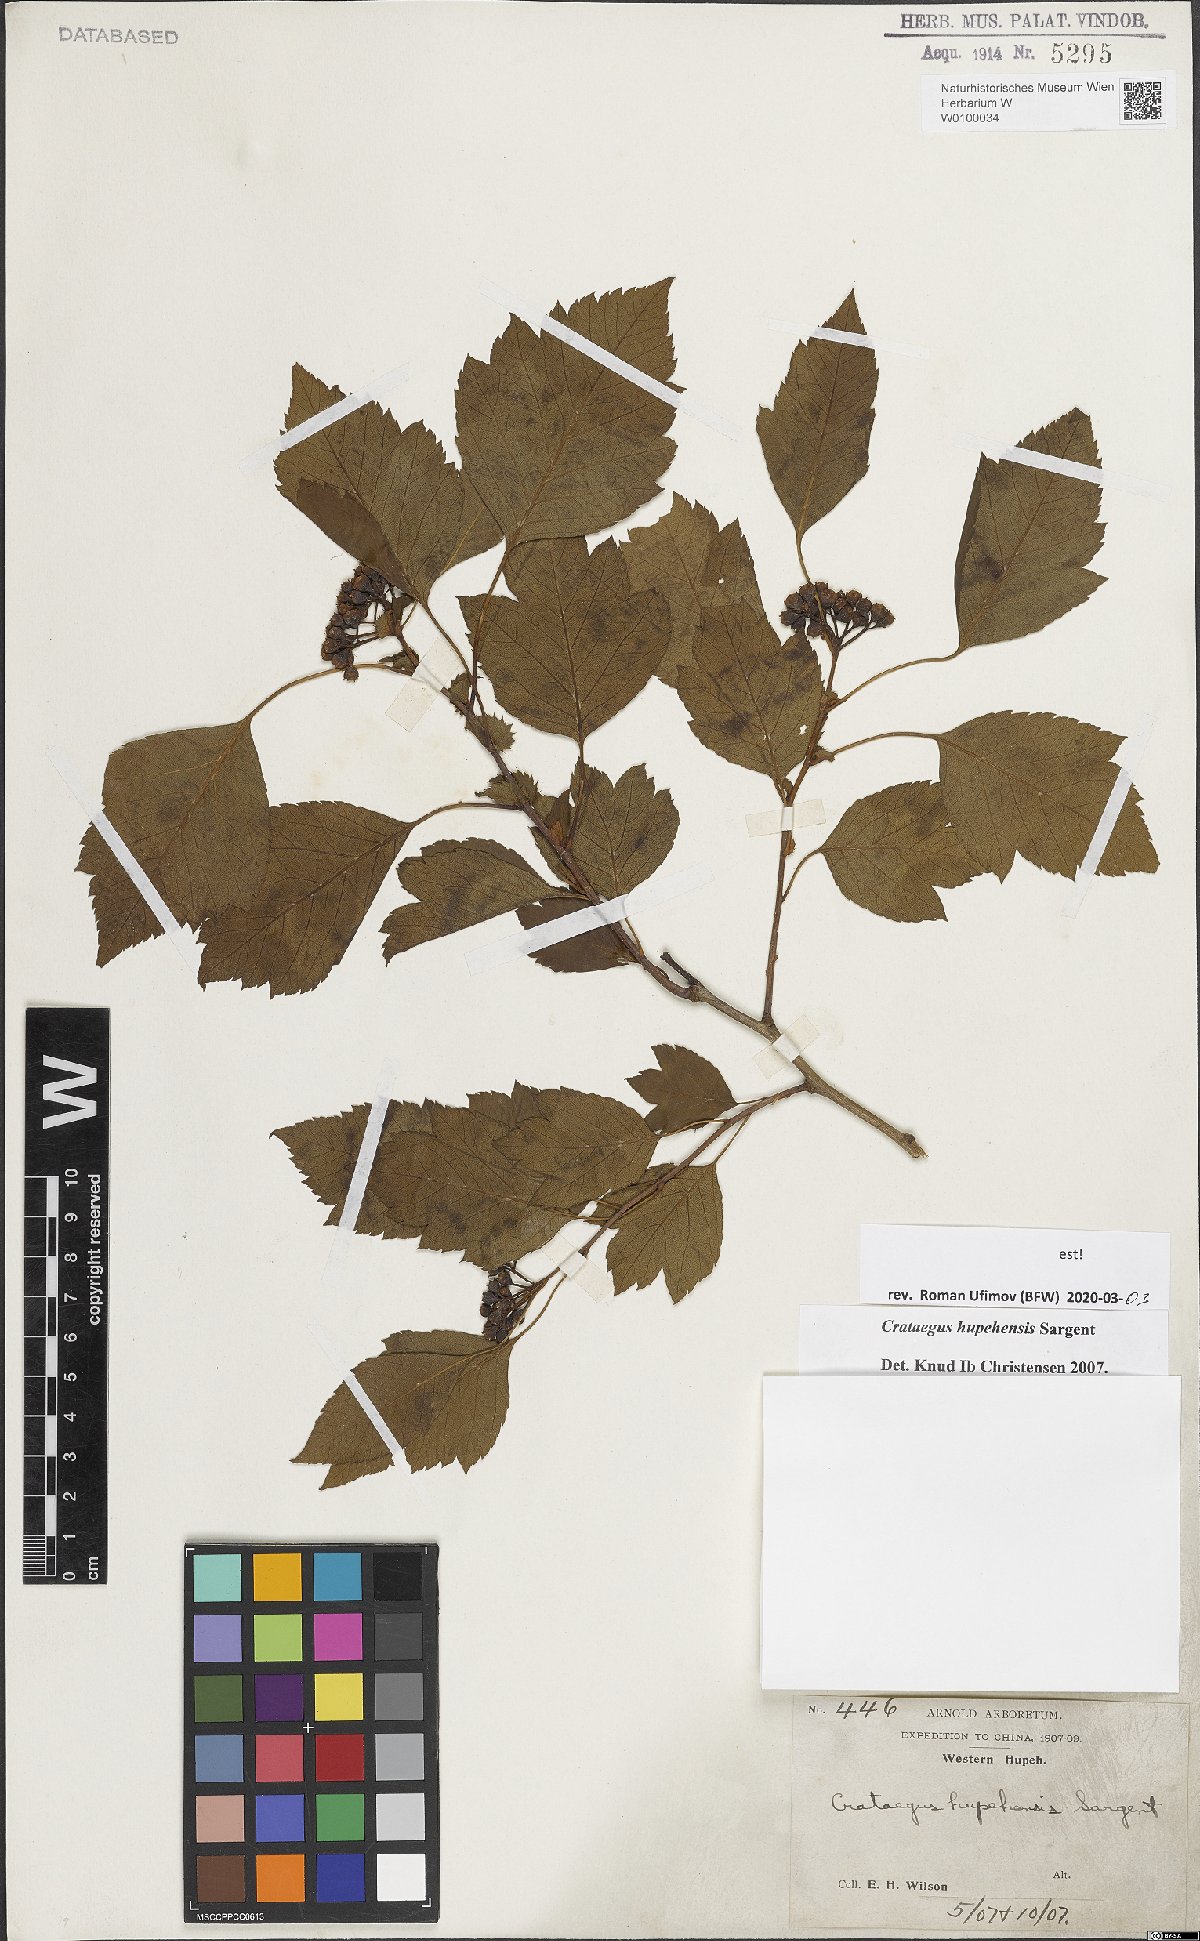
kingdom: Plantae
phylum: Tracheophyta
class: Magnoliopsida
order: Rosales
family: Rosaceae
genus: Crataegus
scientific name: Crataegus hupehensis
